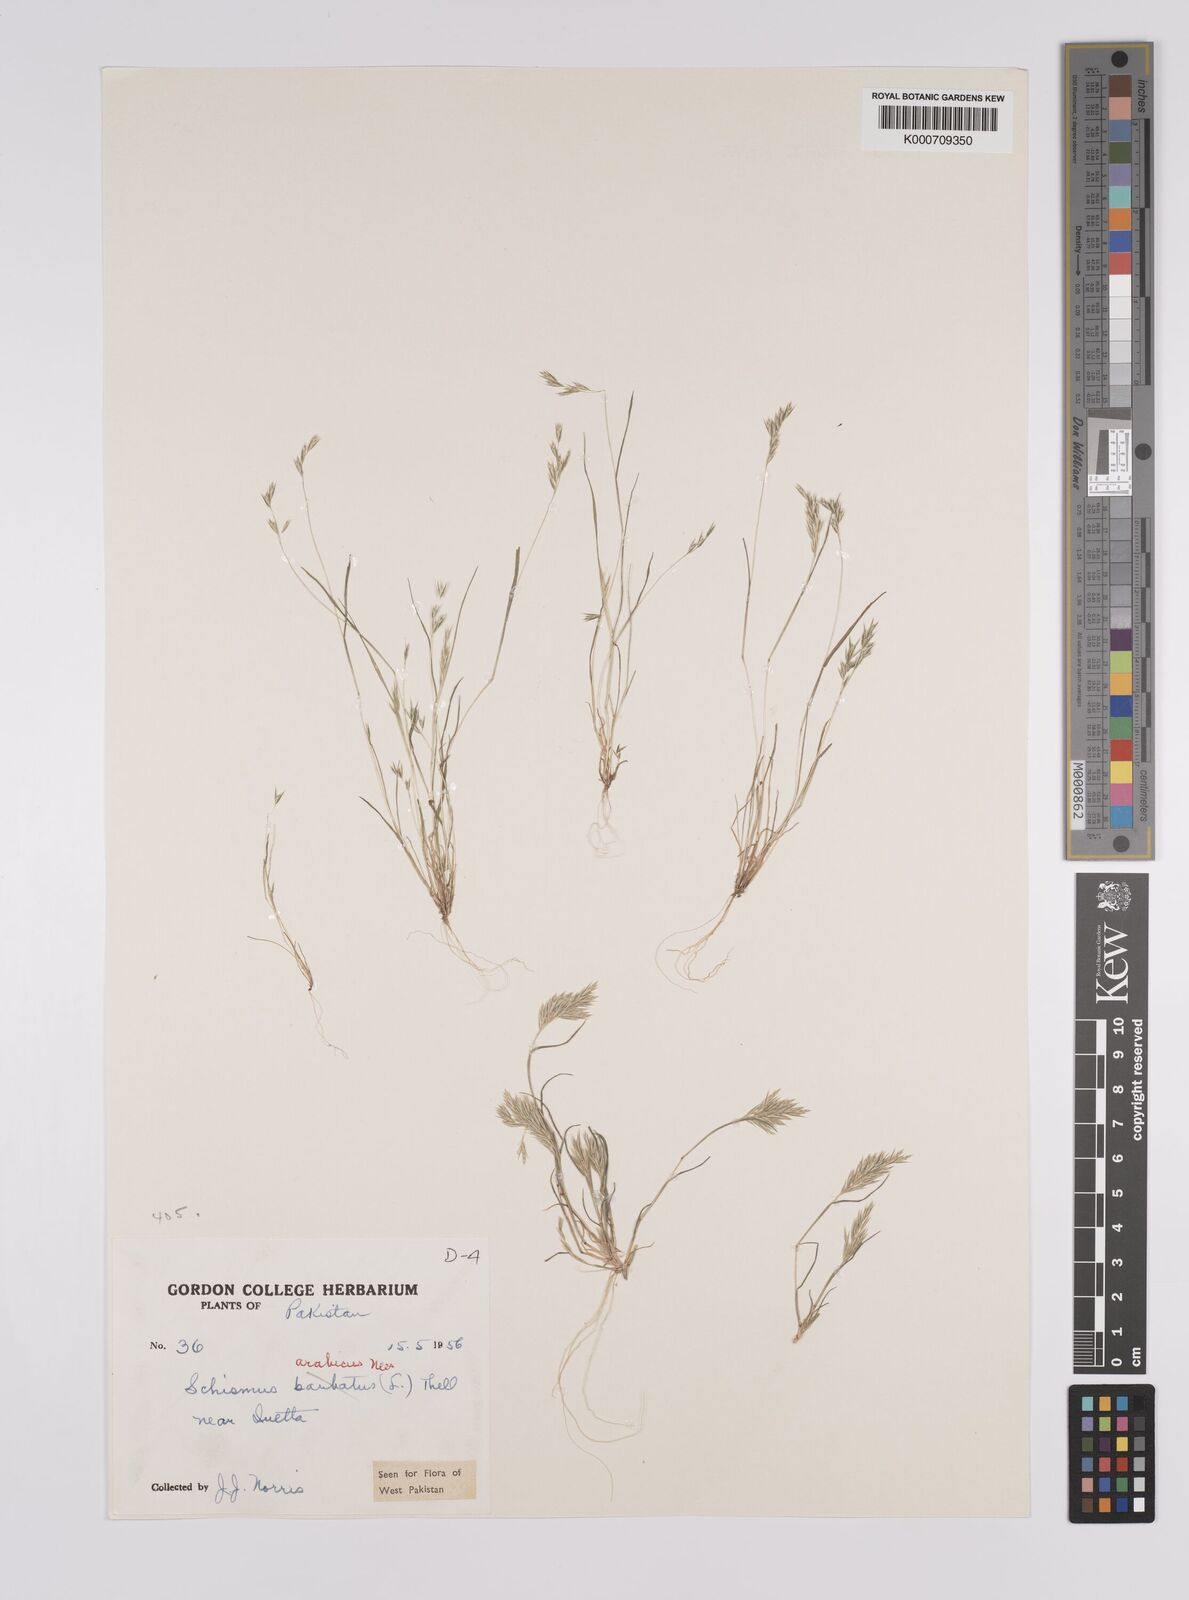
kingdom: Plantae
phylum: Tracheophyta
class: Liliopsida
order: Poales
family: Poaceae
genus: Schismus
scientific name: Schismus arabicus
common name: Arabian schismus
